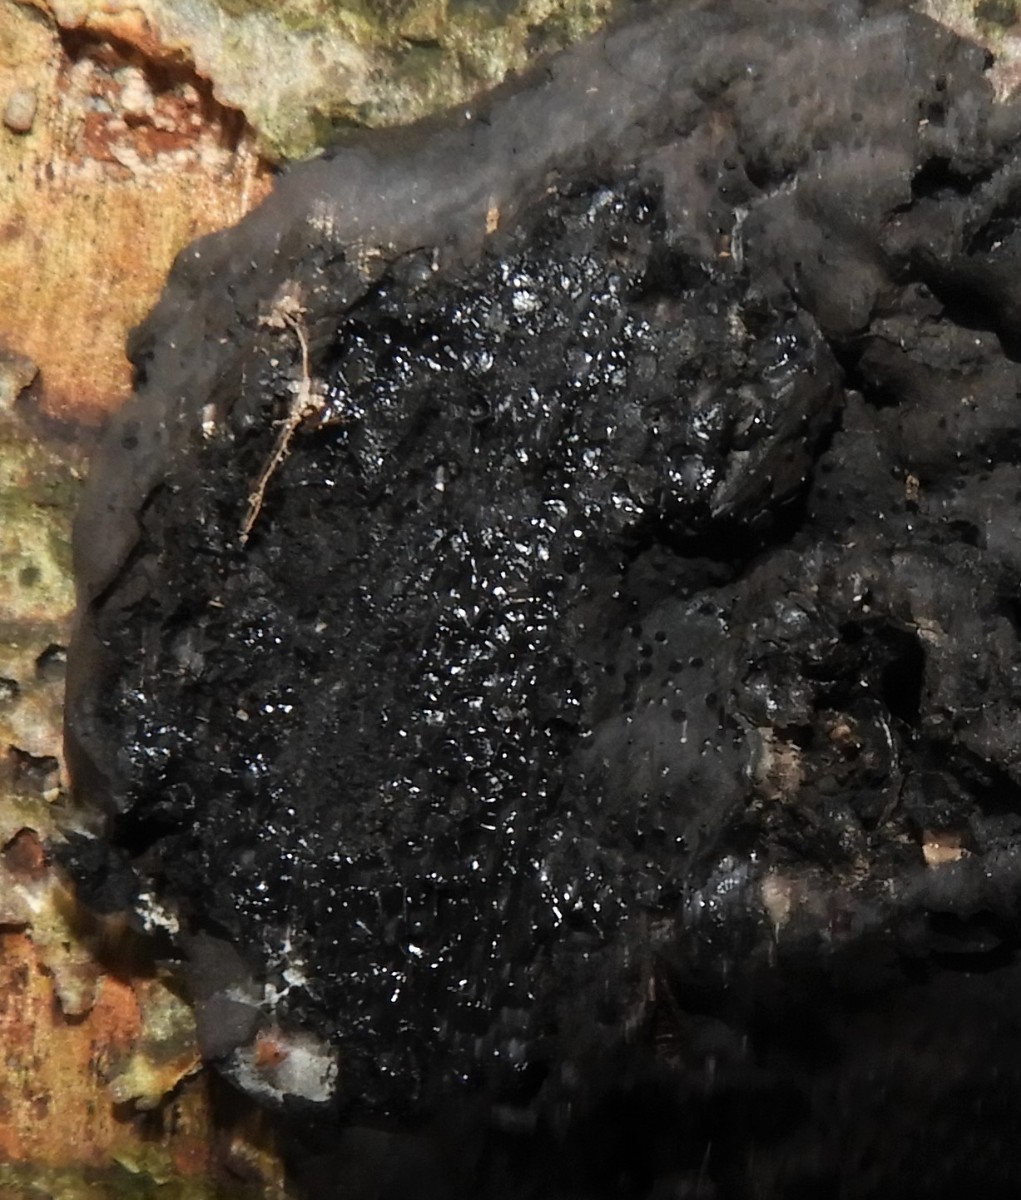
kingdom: Fungi
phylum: Ascomycota
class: Sordariomycetes
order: Xylariales
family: Xylariaceae
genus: Kretzschmaria
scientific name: Kretzschmaria deusta
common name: stor kulsvamp
